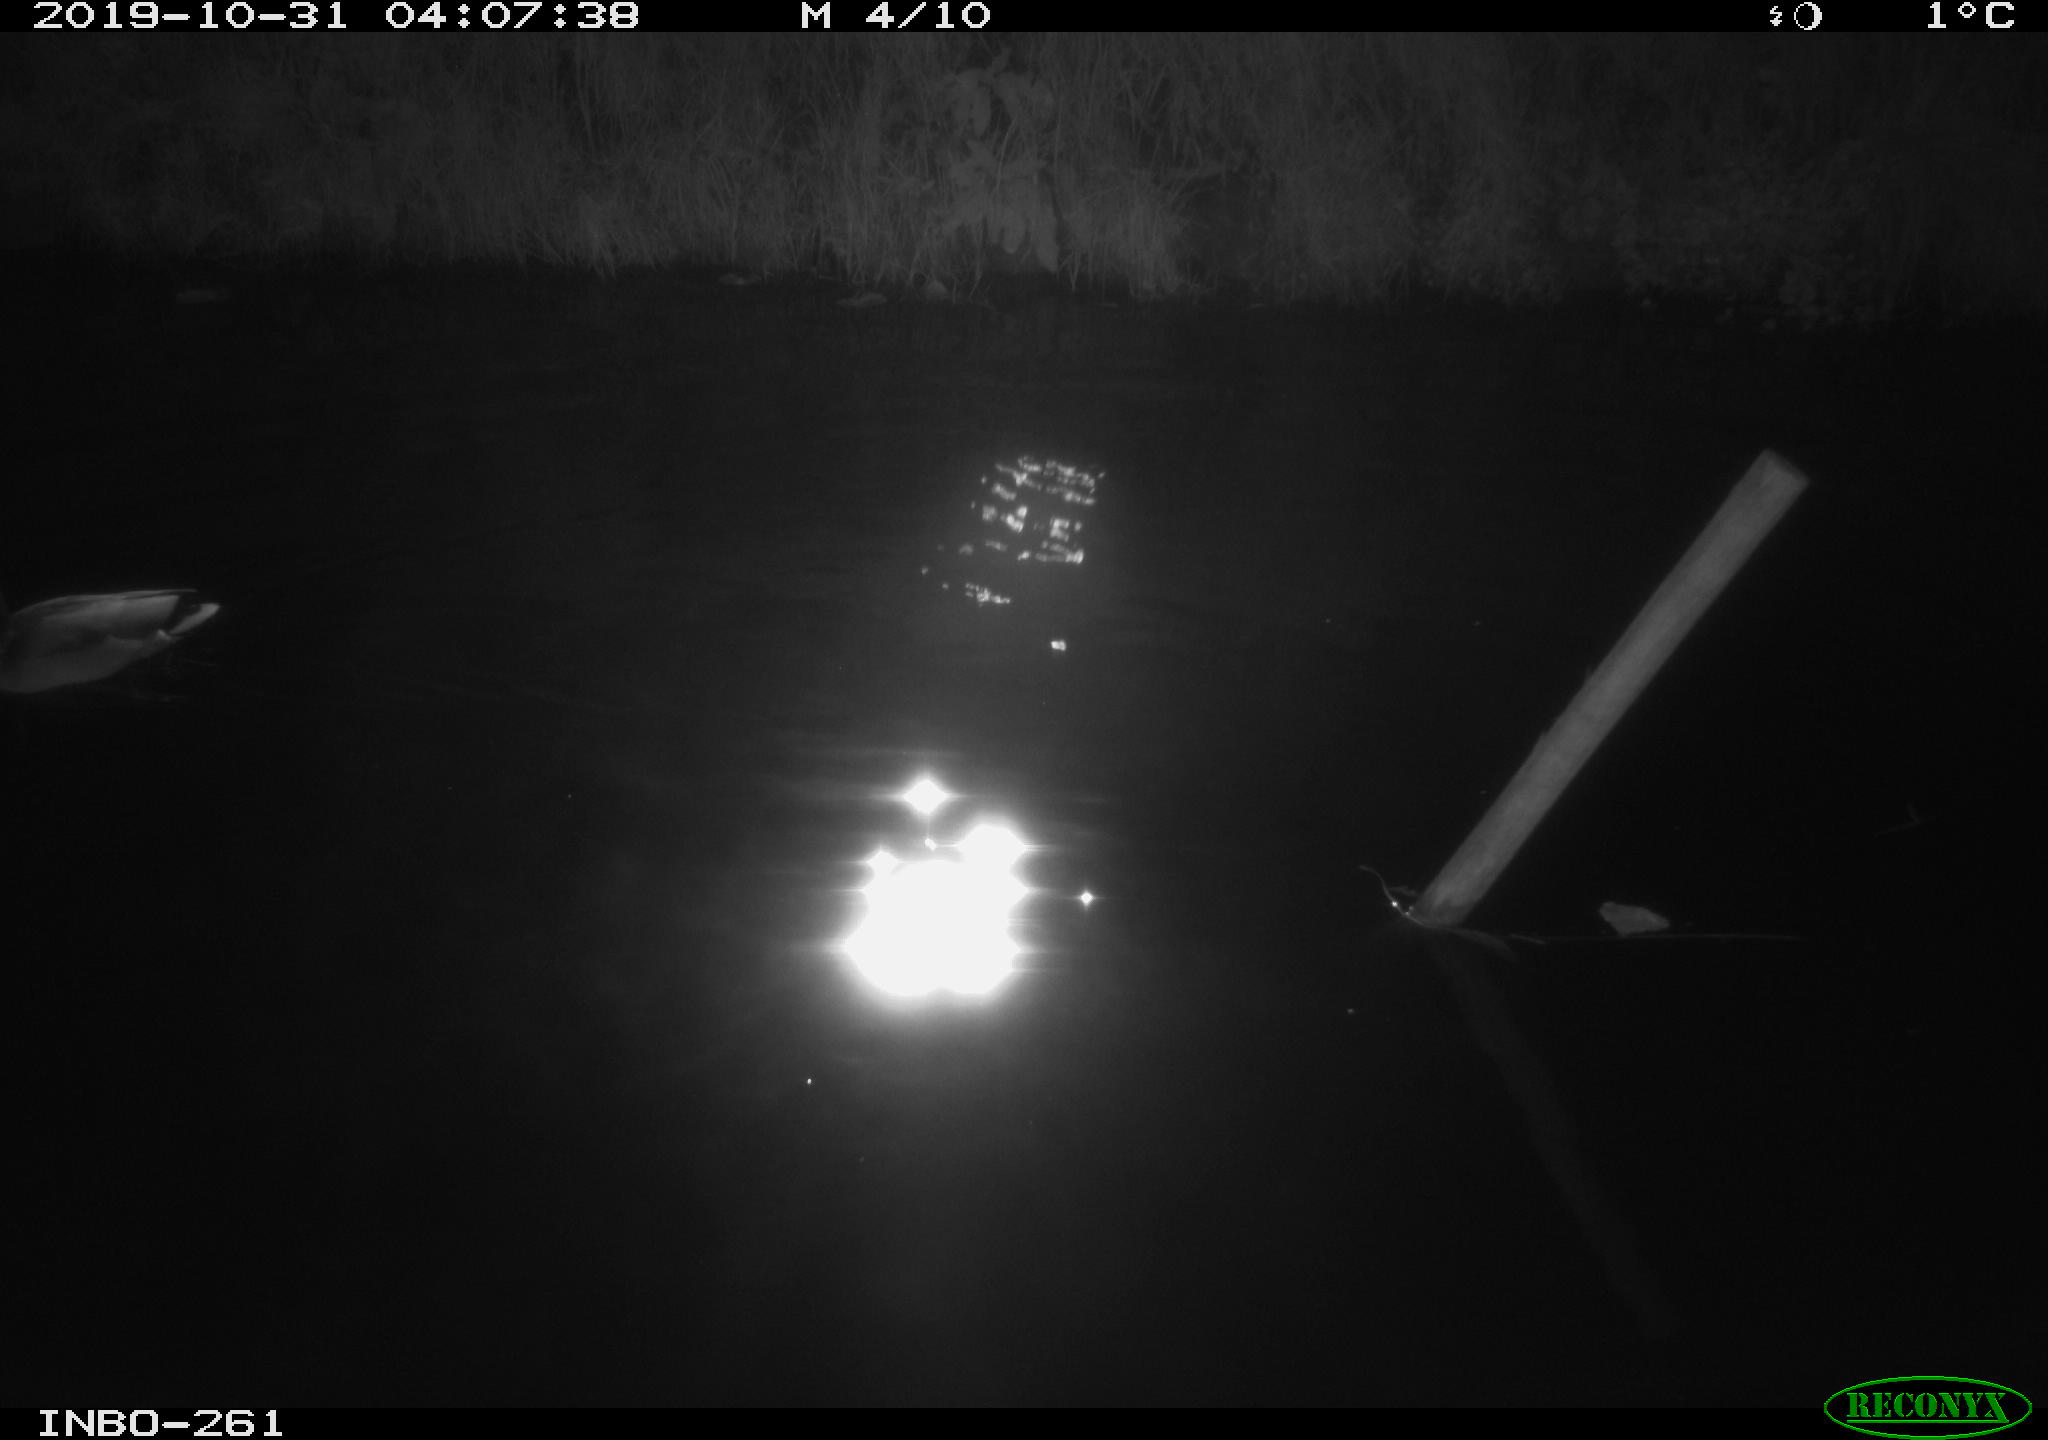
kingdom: Animalia
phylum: Chordata
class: Aves
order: Anseriformes
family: Anatidae
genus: Anas
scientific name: Anas platyrhynchos
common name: Mallard
